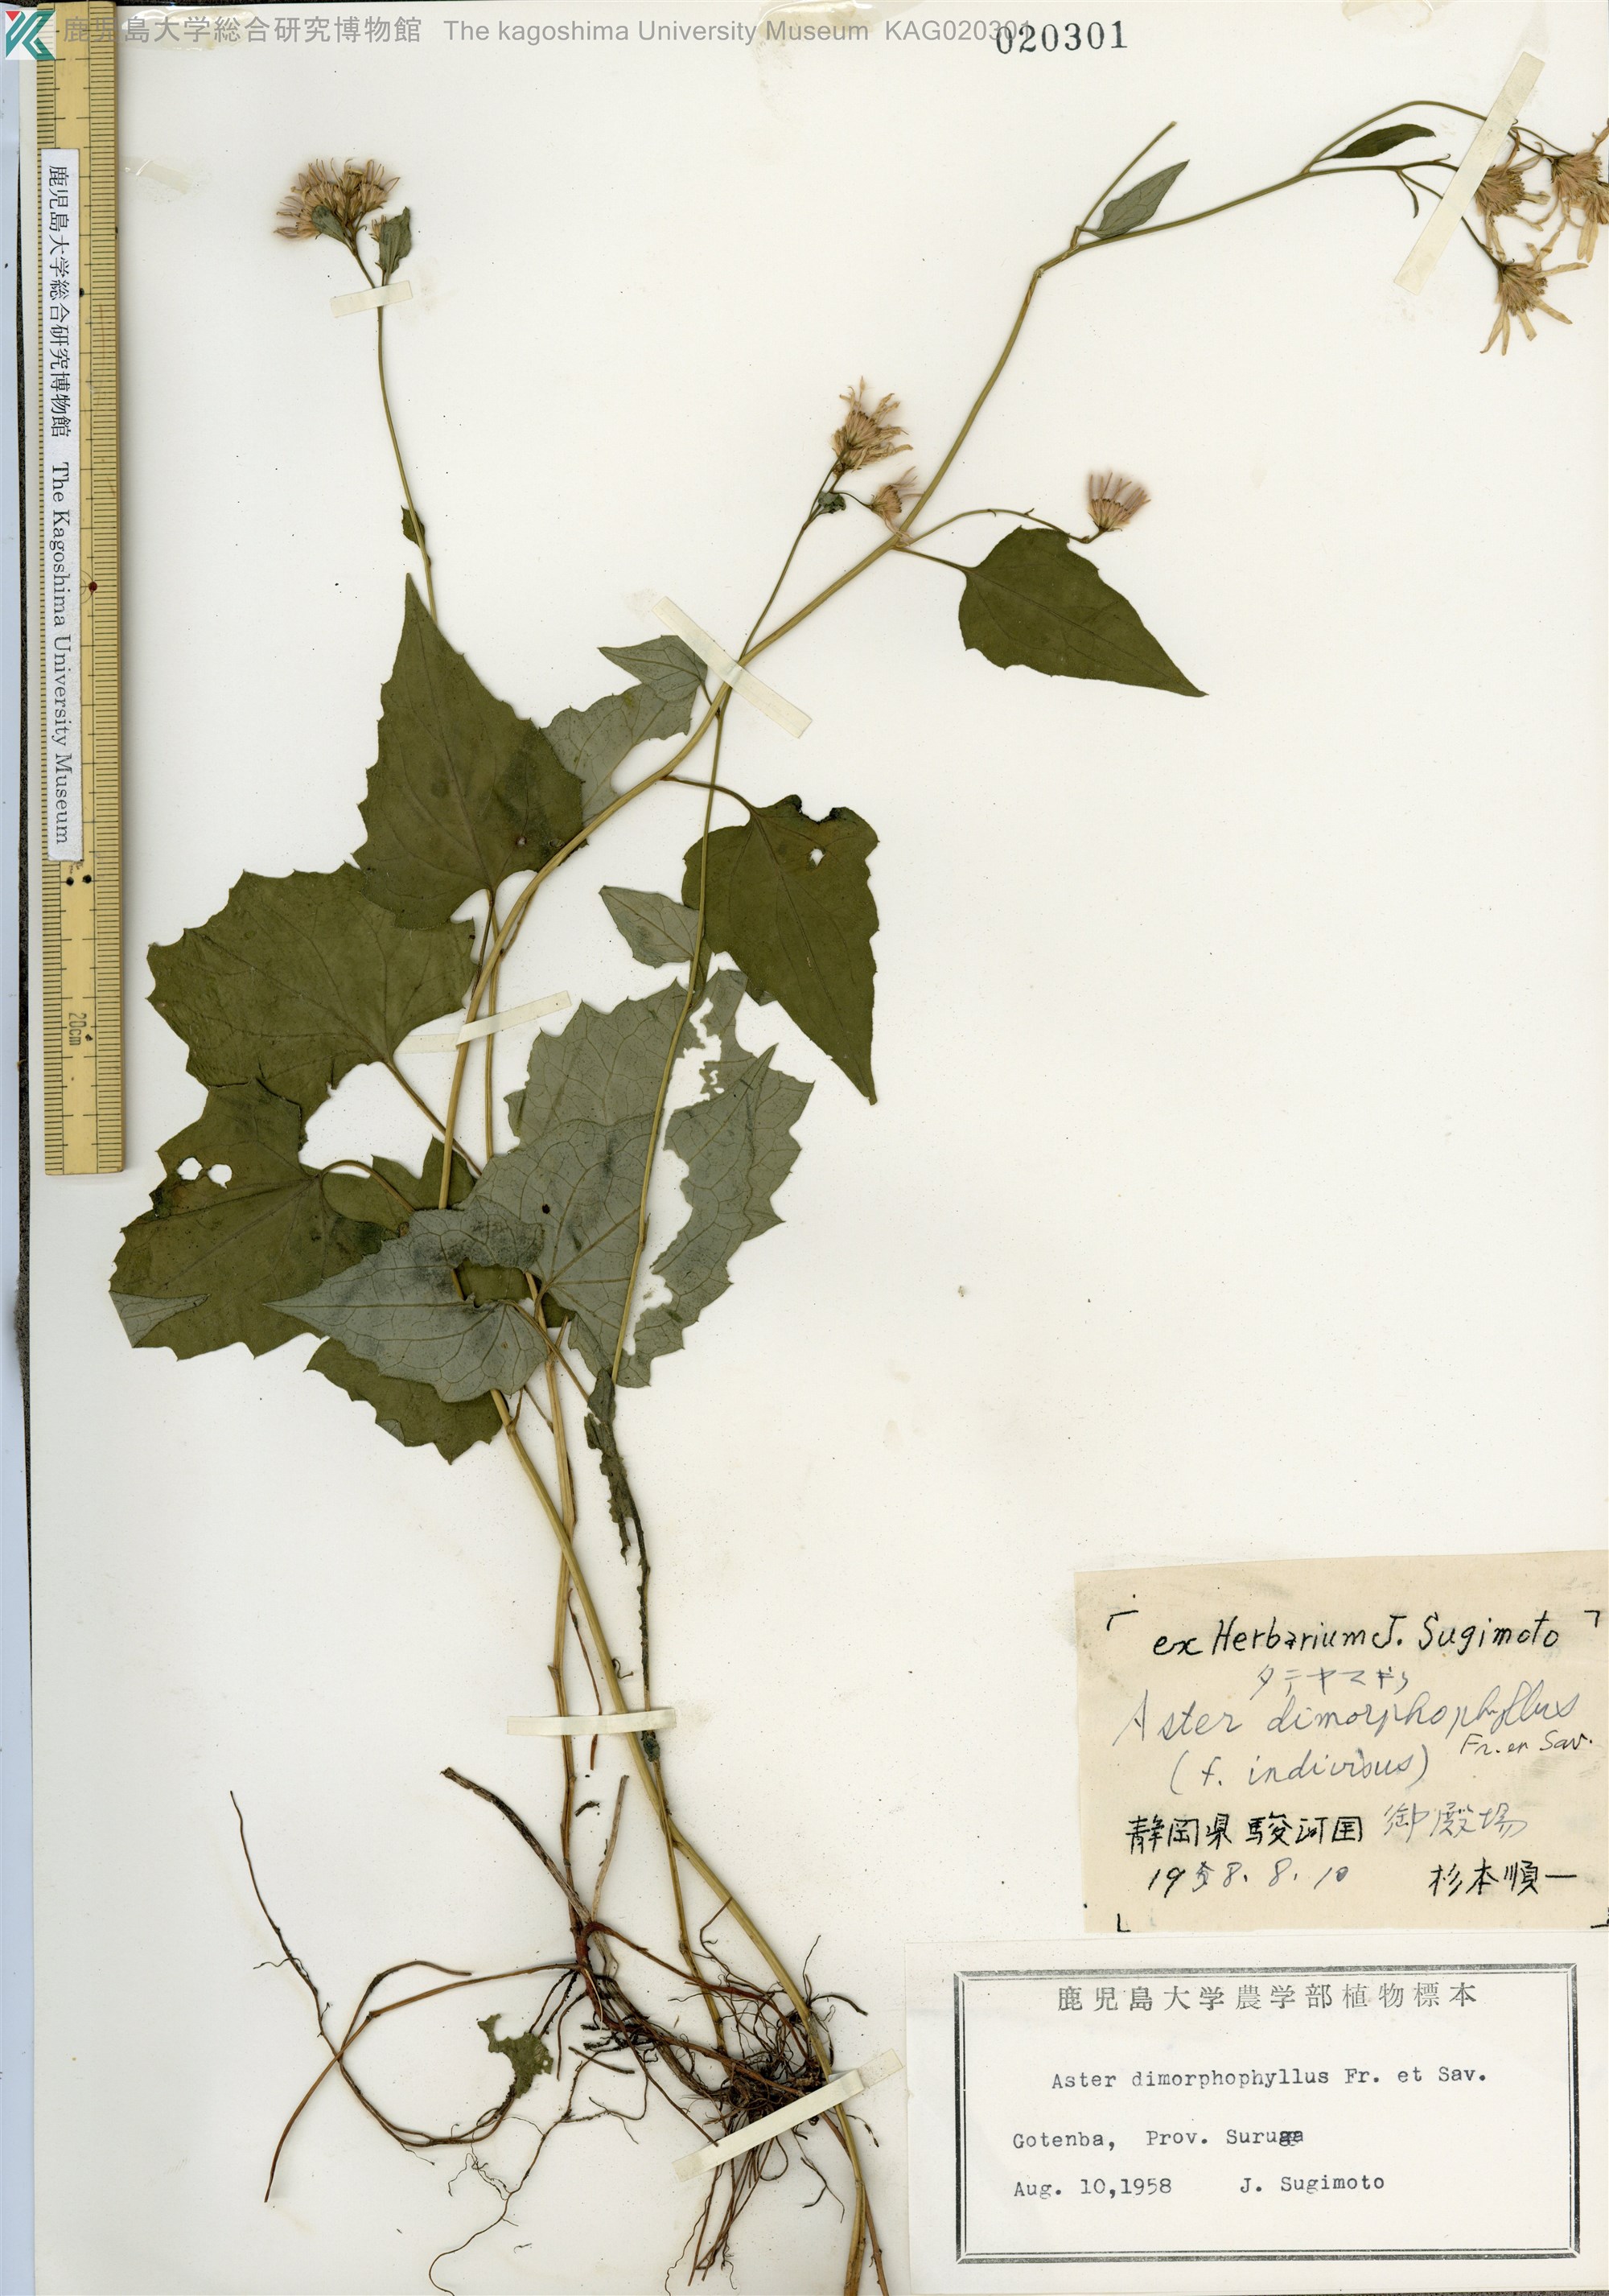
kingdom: Plantae
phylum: Tracheophyta
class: Magnoliopsida
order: Asterales
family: Asteraceae
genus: Cardiagyris
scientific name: Cardiagyris dimorphophylla
